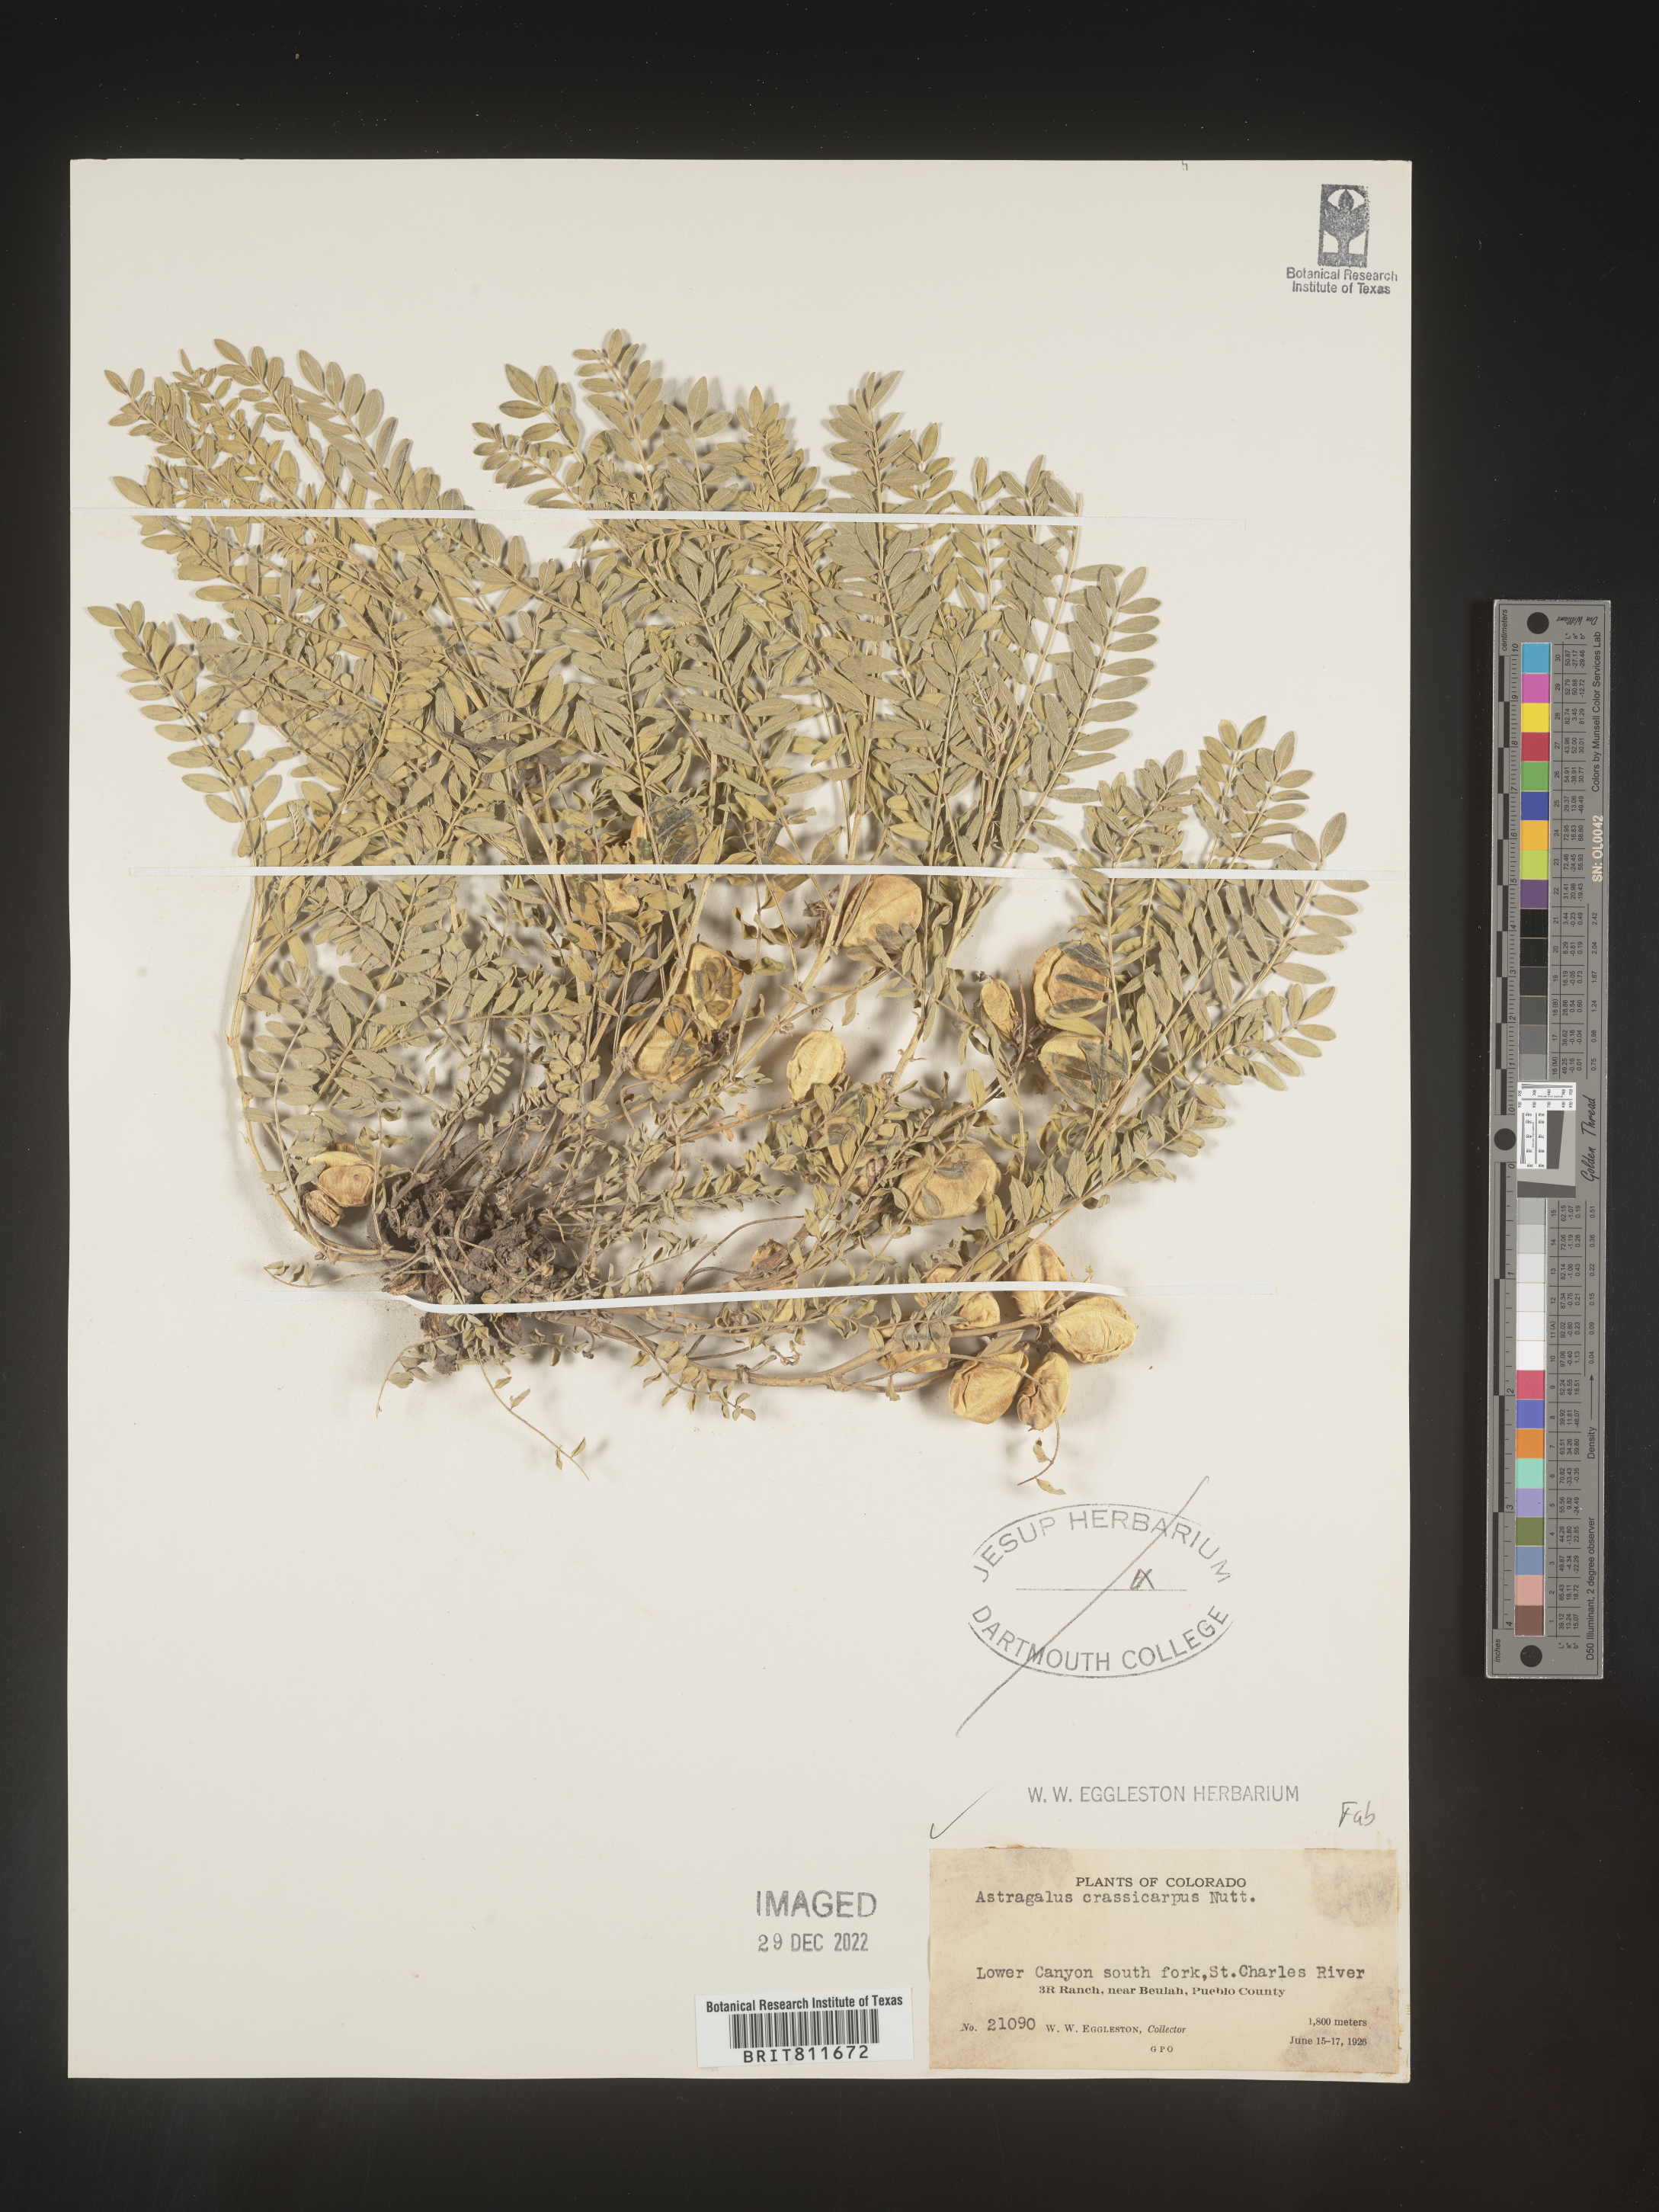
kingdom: Plantae
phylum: Tracheophyta
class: Magnoliopsida
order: Fabales
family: Fabaceae
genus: Astragalus
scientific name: Astragalus crassicarpus
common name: Ground-plum milk-vetch
